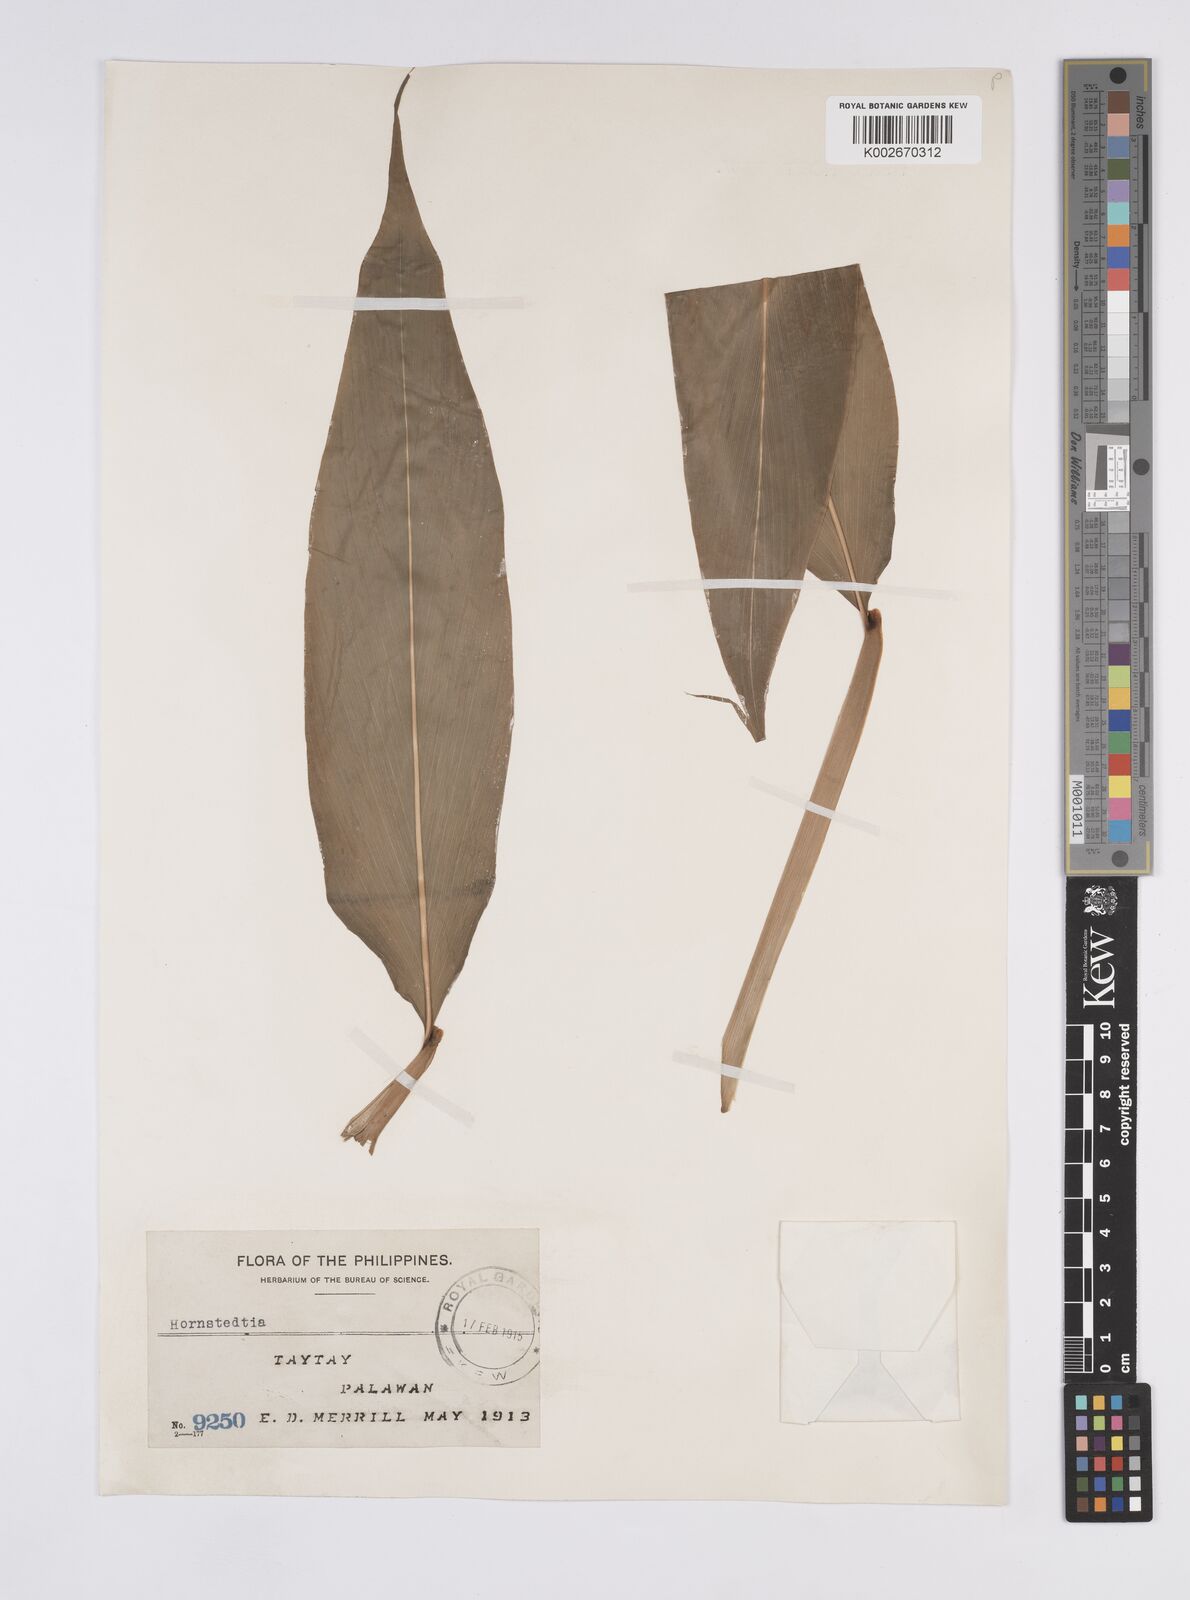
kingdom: Plantae
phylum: Tracheophyta
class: Liliopsida
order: Zingiberales
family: Zingiberaceae
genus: Hornstedtia
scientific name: Hornstedtia
